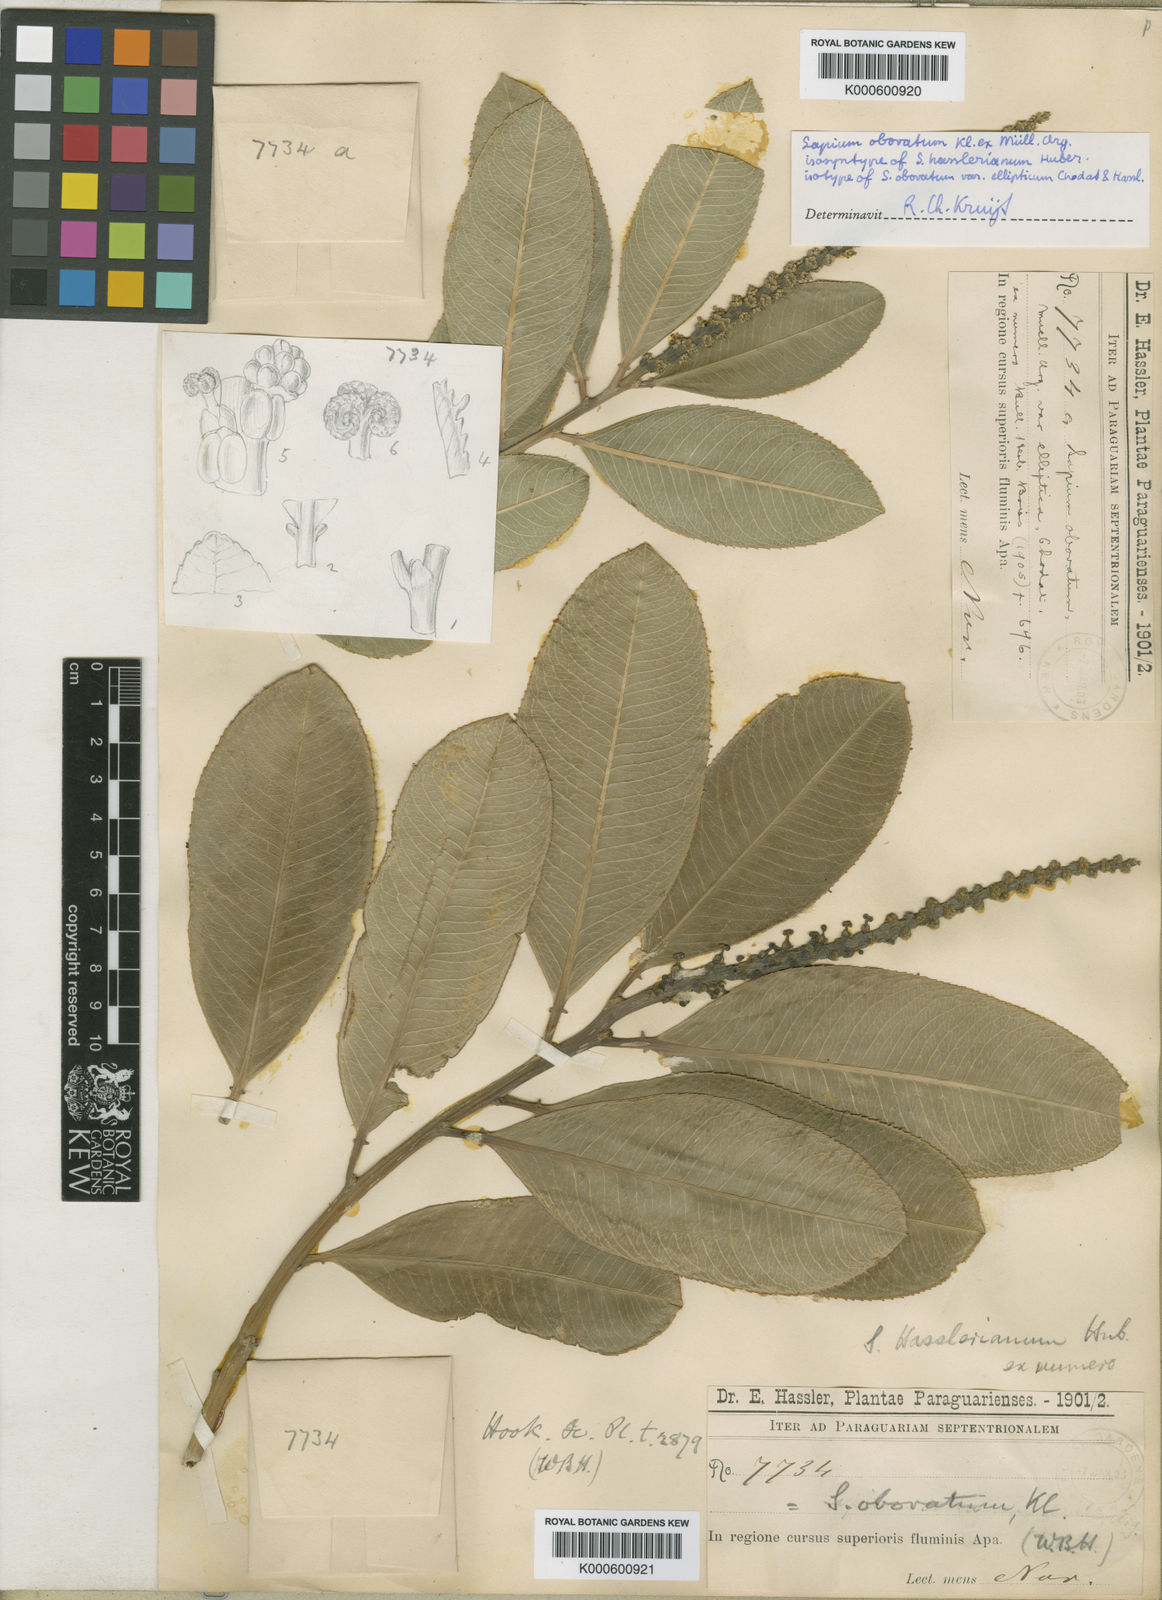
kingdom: Plantae
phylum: Tracheophyta
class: Magnoliopsida
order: Malpighiales
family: Euphorbiaceae
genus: Sapium
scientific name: Sapium obovatum
